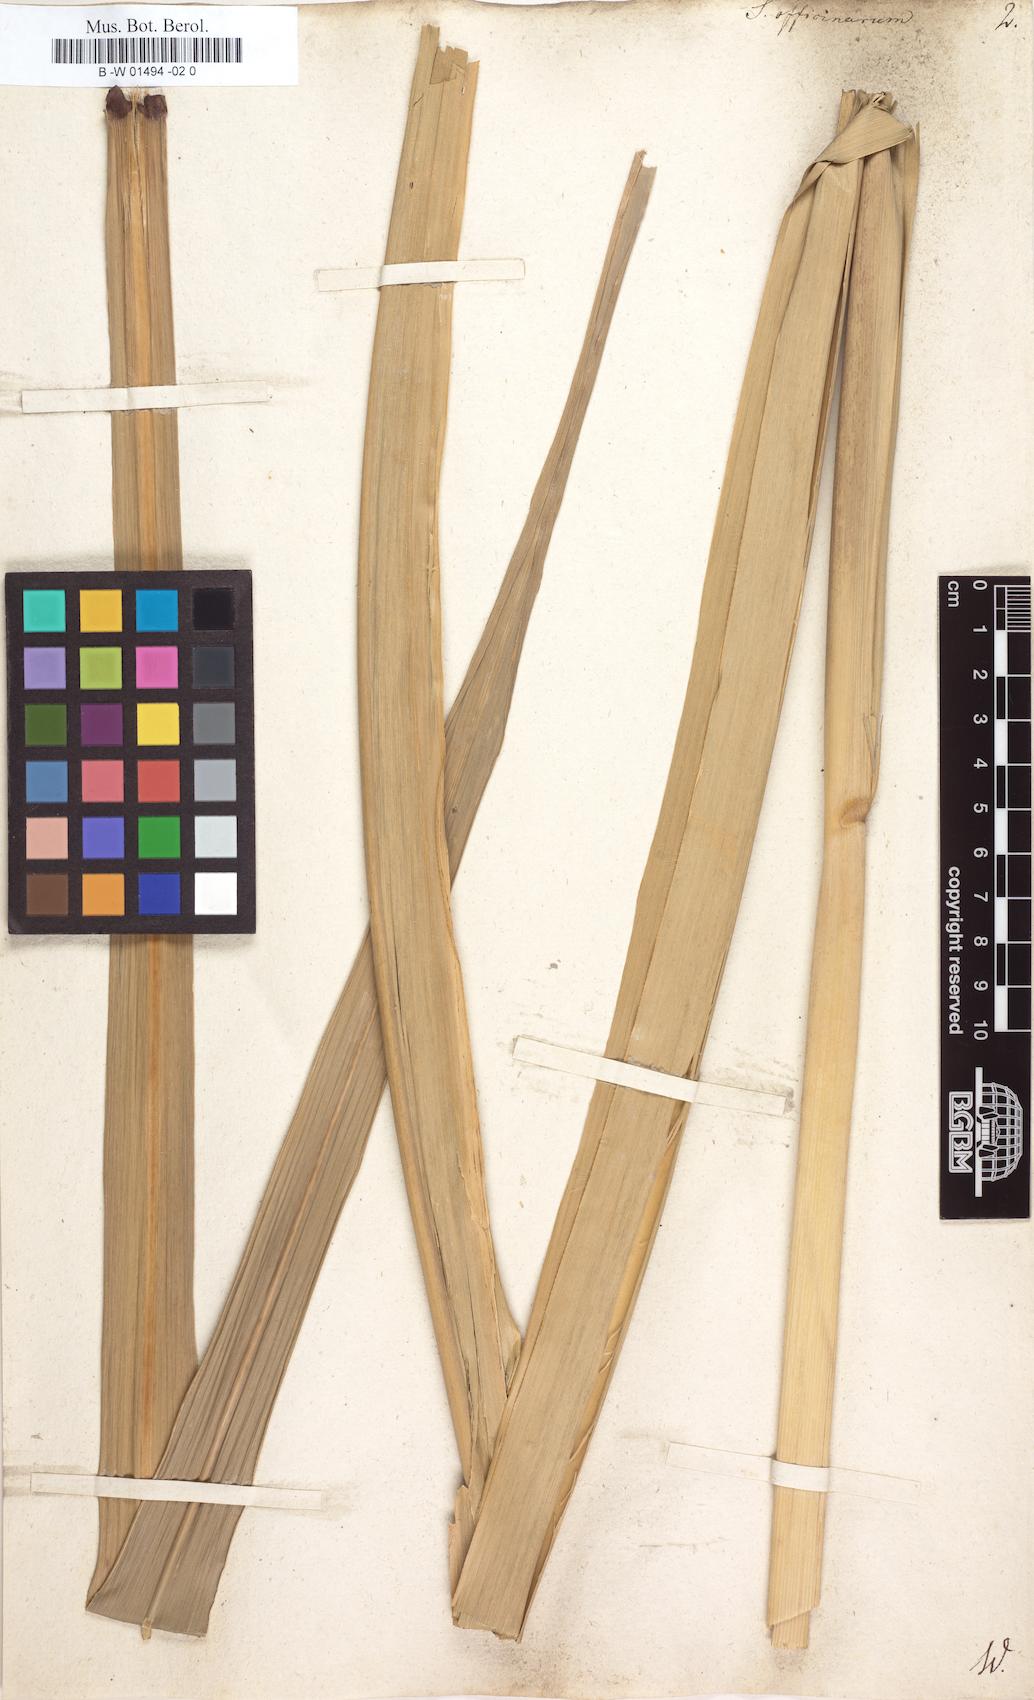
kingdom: Plantae
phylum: Tracheophyta
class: Liliopsida
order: Poales
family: Poaceae
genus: Saccharum
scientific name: Saccharum officinarum
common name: Sugarcane
